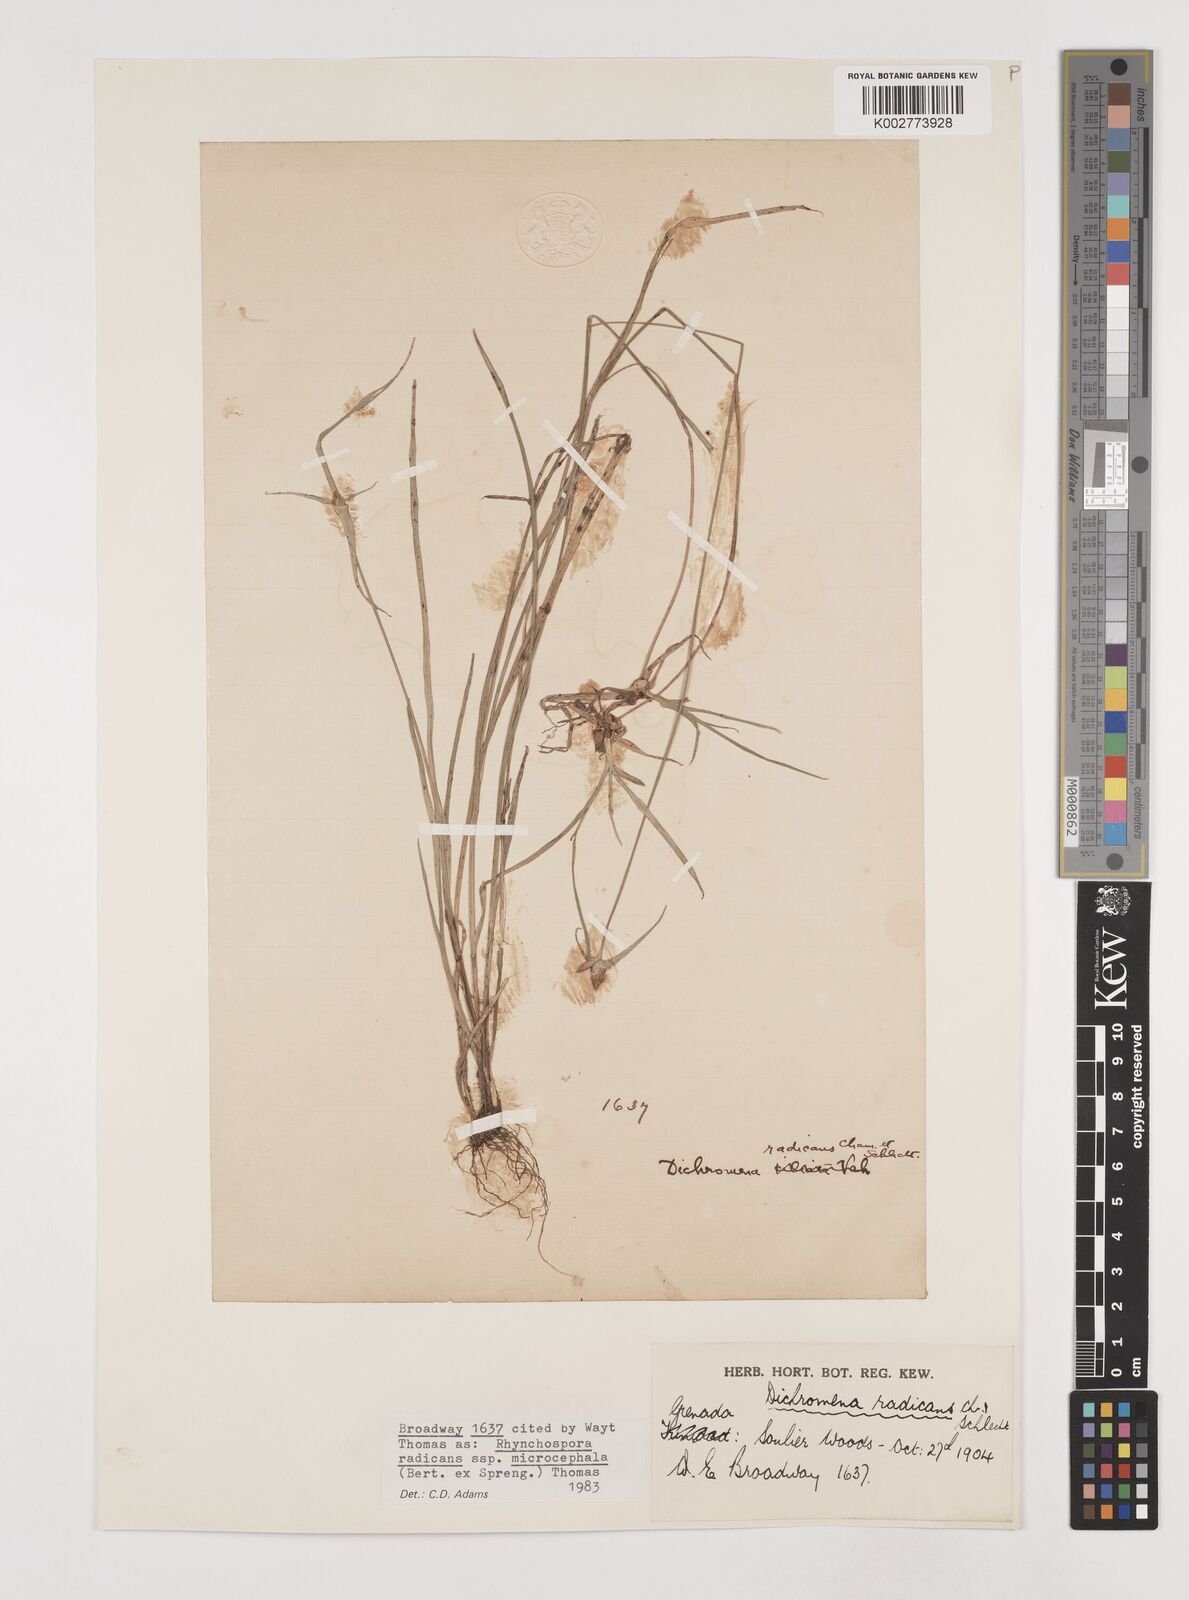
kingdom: Plantae
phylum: Tracheophyta
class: Liliopsida
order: Poales
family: Cyperaceae
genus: Rhynchospora
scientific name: Rhynchospora radicans
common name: Tropical whitetop
